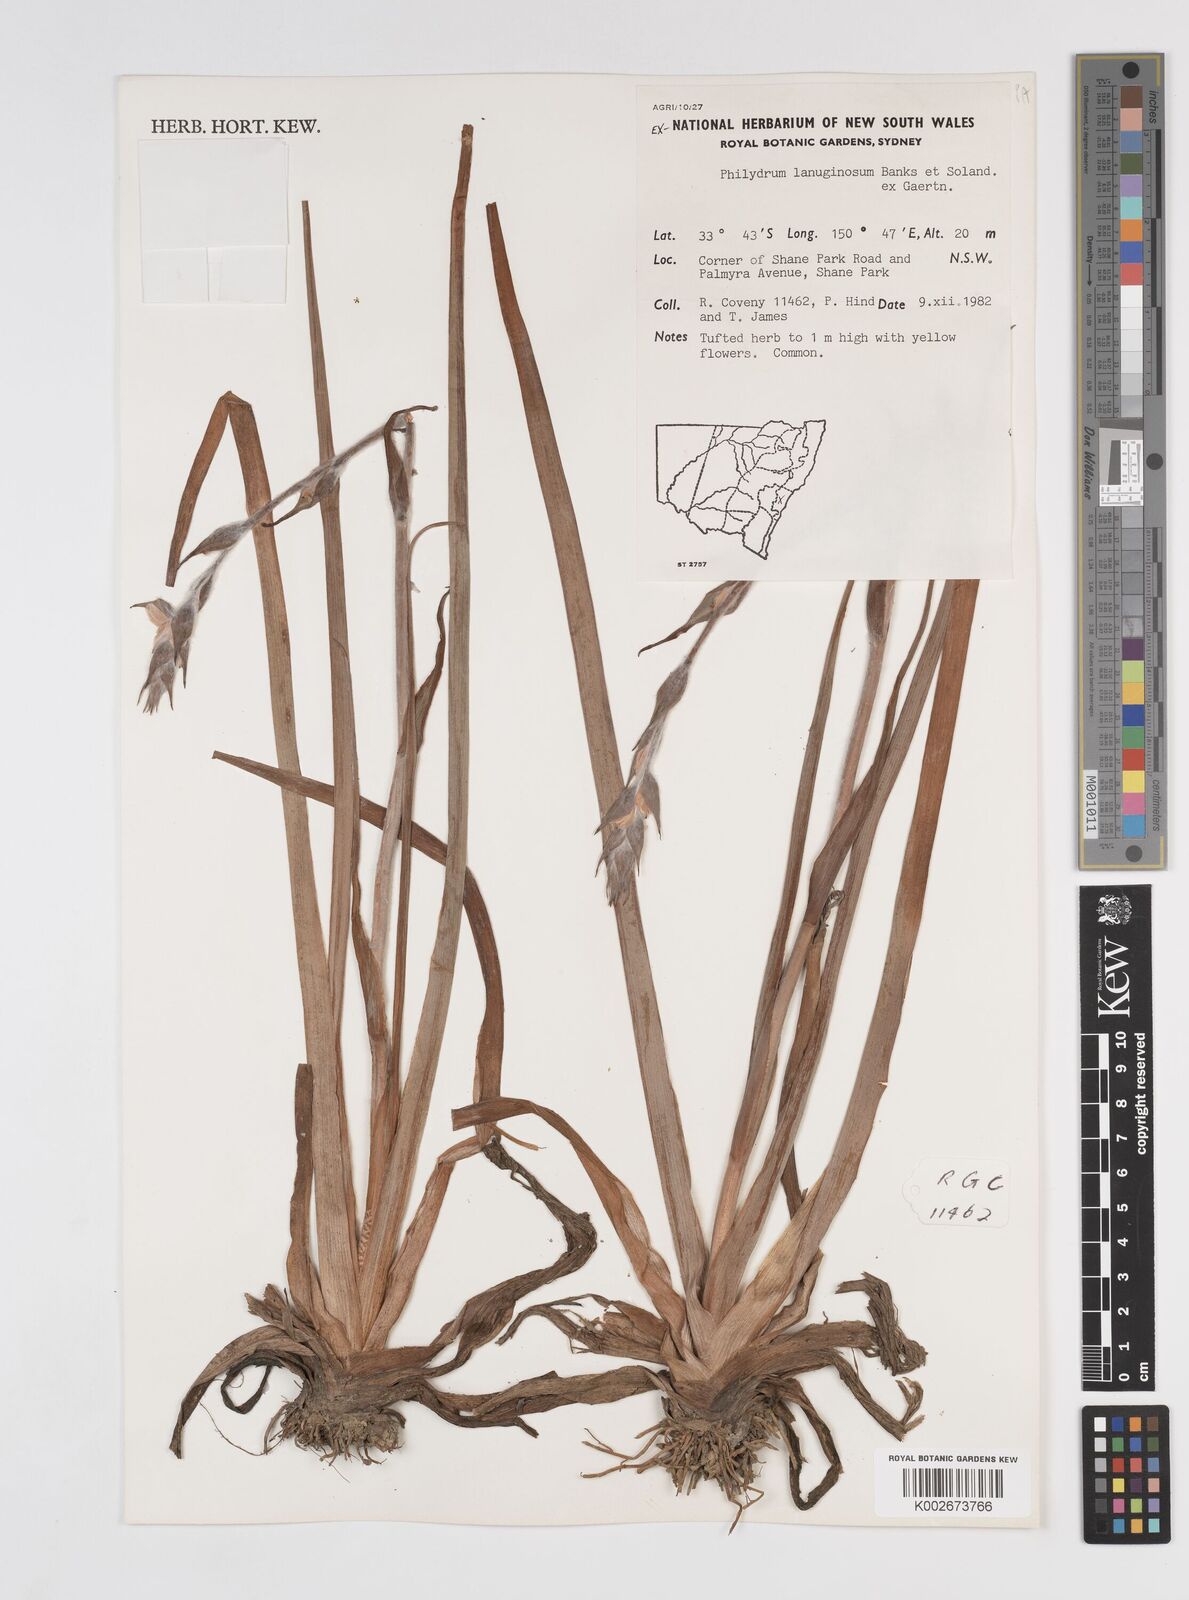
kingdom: Plantae
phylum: Tracheophyta
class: Liliopsida
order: Commelinales
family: Philydraceae
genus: Philydrum
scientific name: Philydrum lanuginosum
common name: Woolly frog's mouth
